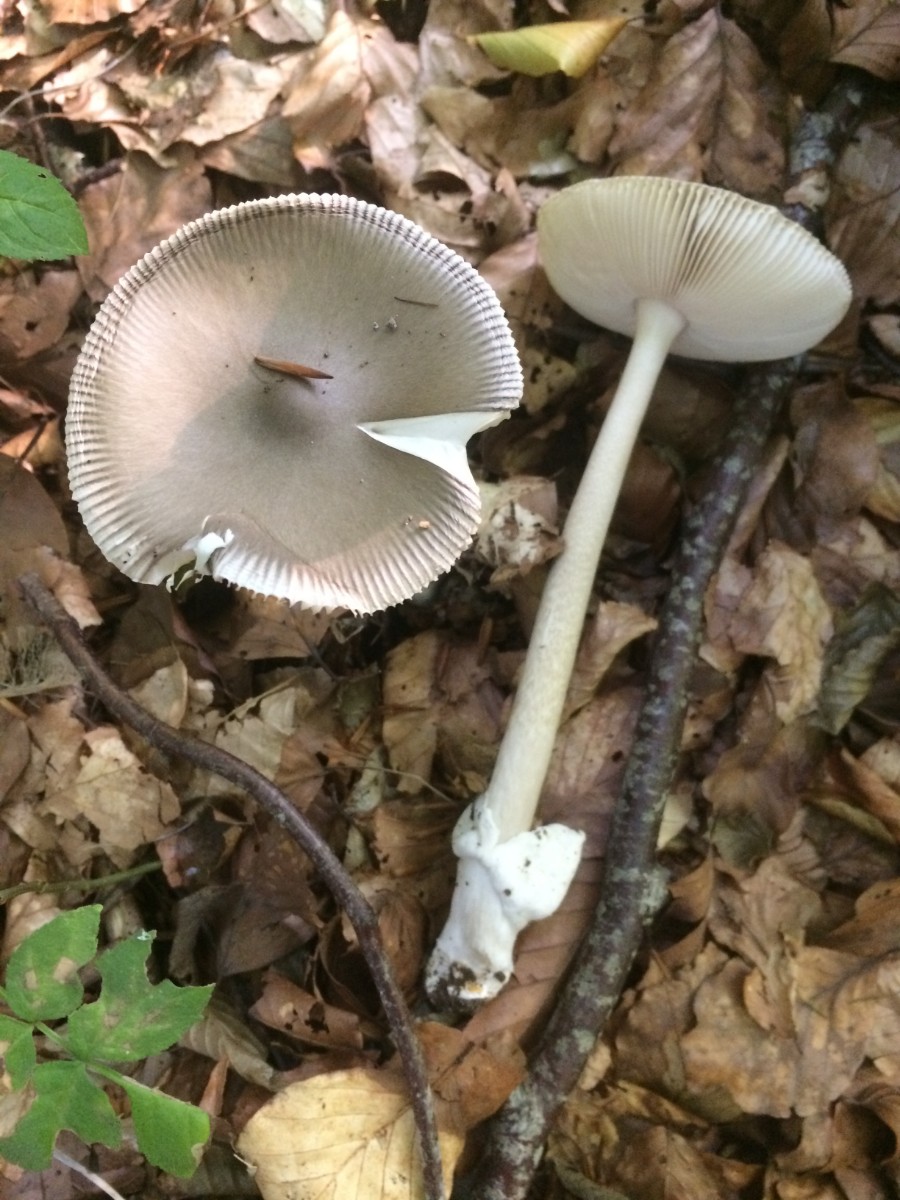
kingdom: Fungi
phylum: Basidiomycota
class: Agaricomycetes
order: Agaricales
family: Amanitaceae
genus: Amanita
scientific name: Amanita vaginata
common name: grå kam-fluesvamp
